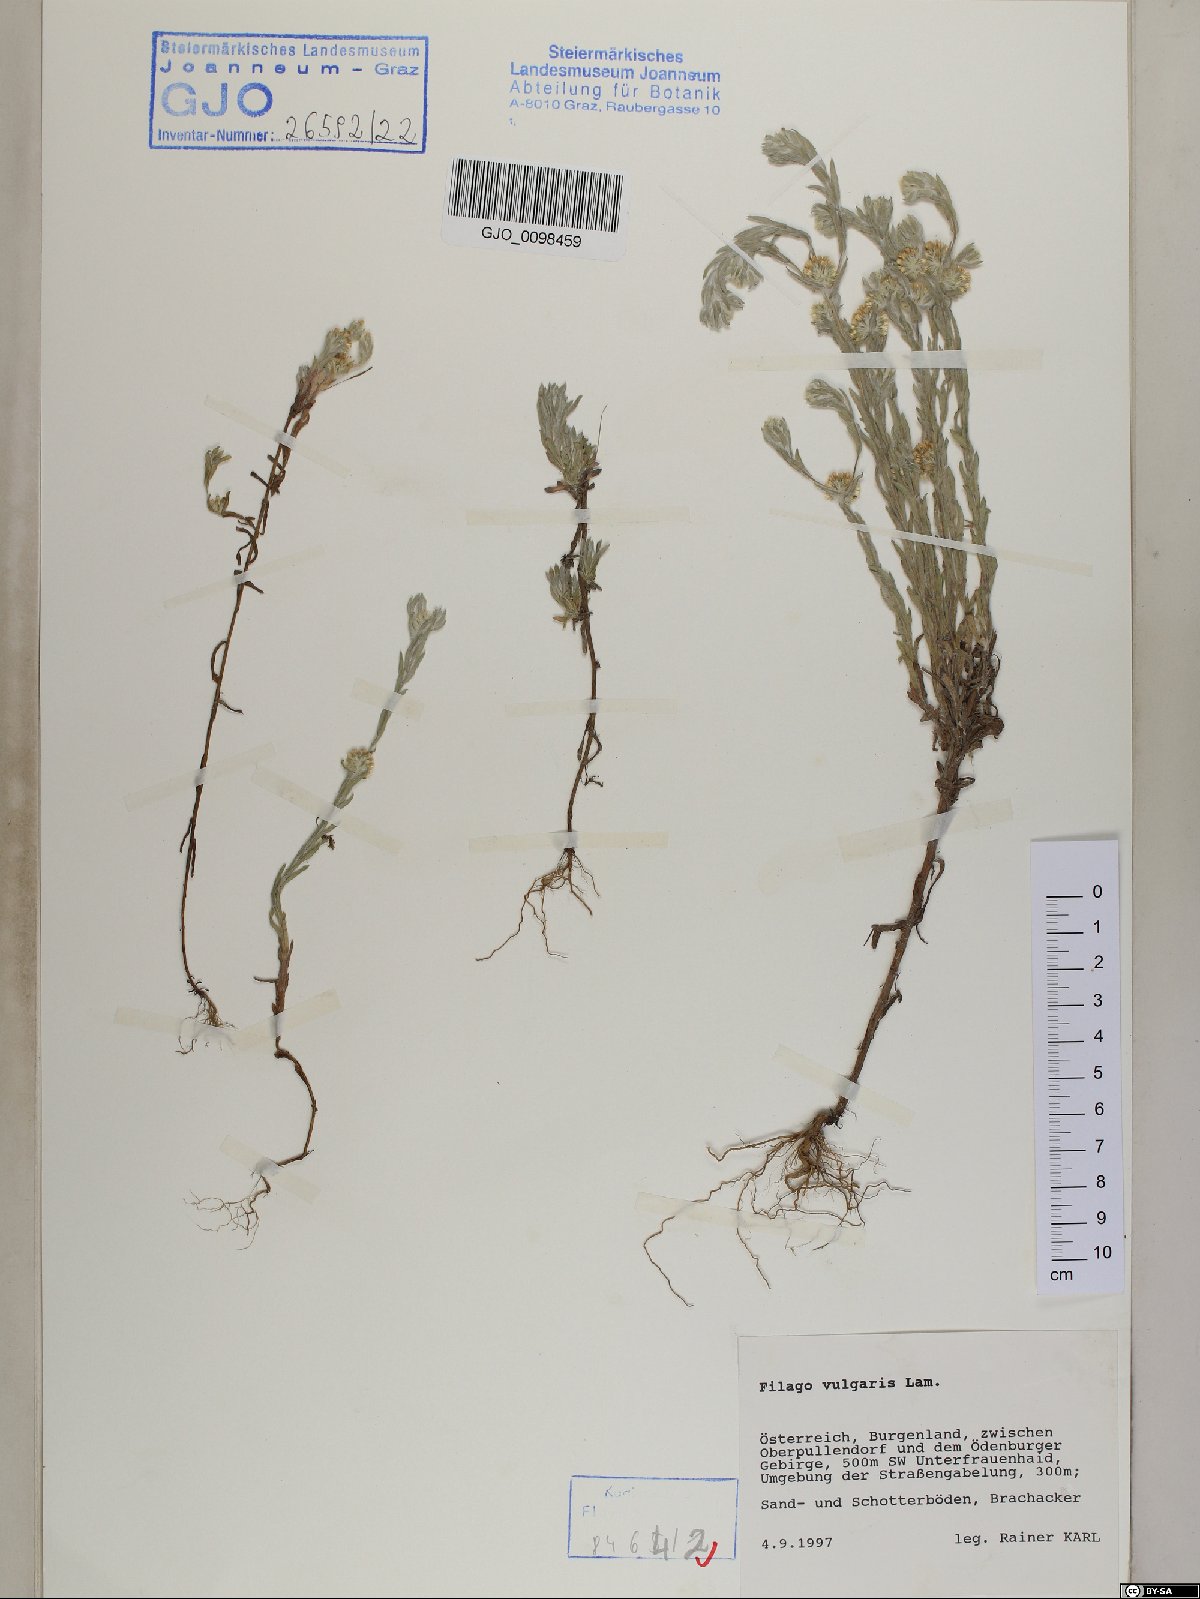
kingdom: Plantae
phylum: Tracheophyta
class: Magnoliopsida
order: Asterales
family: Asteraceae
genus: Filago
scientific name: Filago germanica
